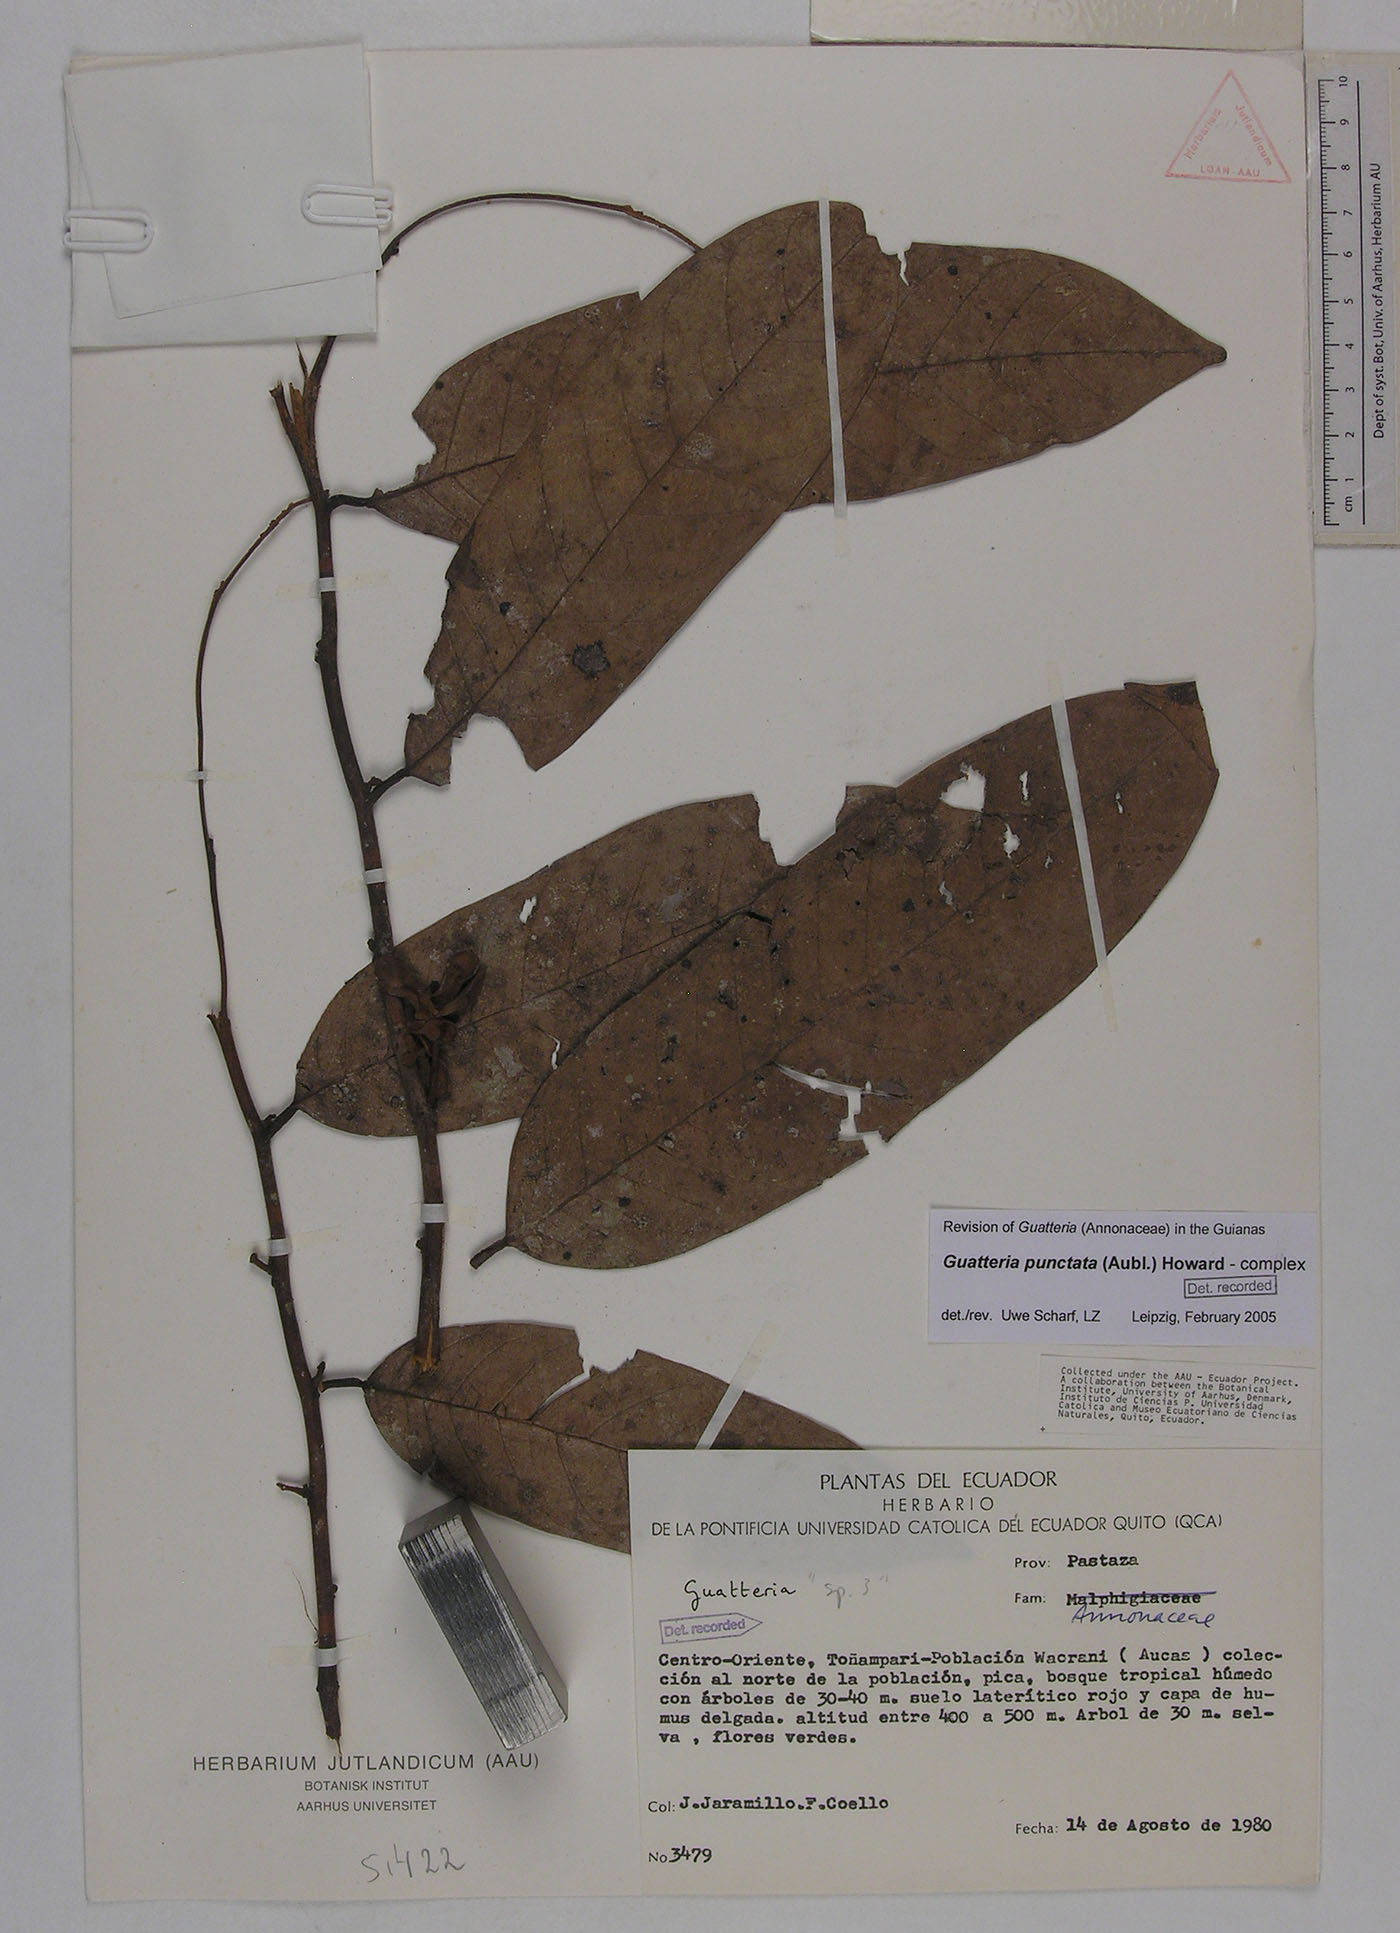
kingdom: Plantae
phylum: Tracheophyta
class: Magnoliopsida
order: Magnoliales
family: Annonaceae
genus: Guatteria
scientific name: Guatteria punctata
